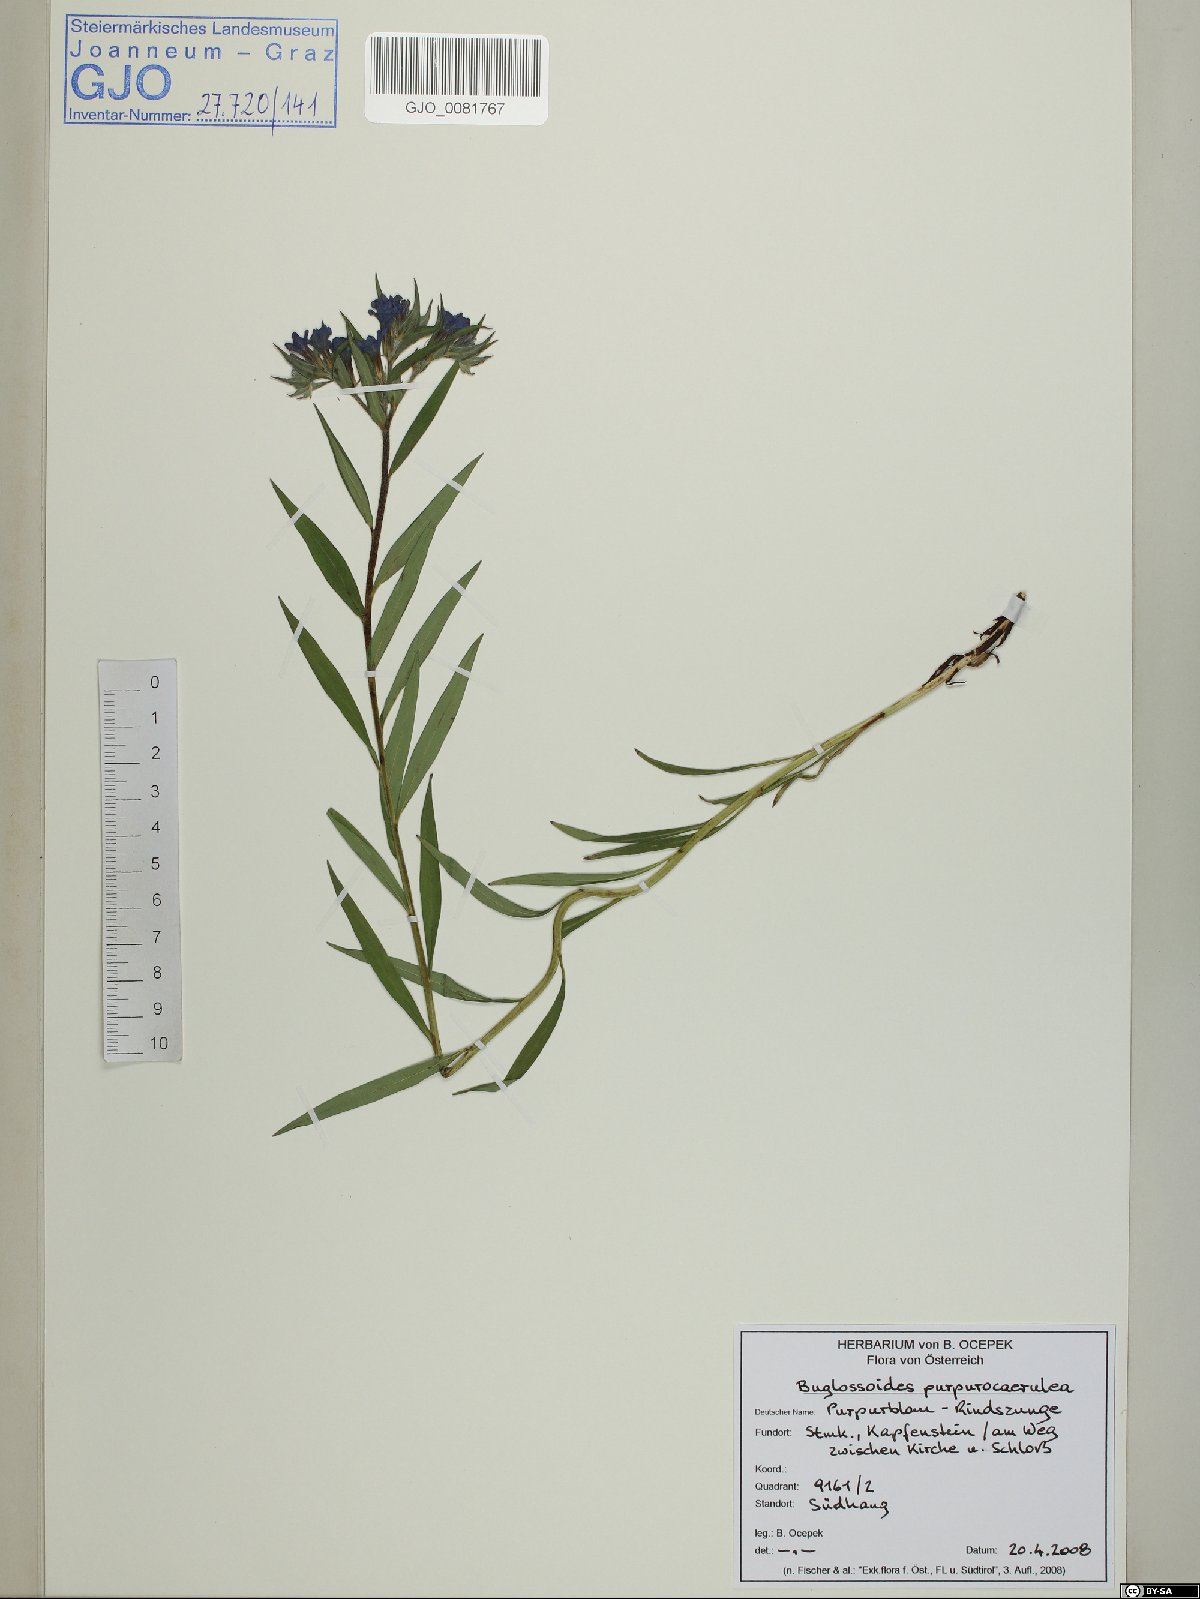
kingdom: Plantae
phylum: Tracheophyta
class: Magnoliopsida
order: Boraginales
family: Boraginaceae
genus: Aegonychon
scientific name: Aegonychon purpurocaeruleum
